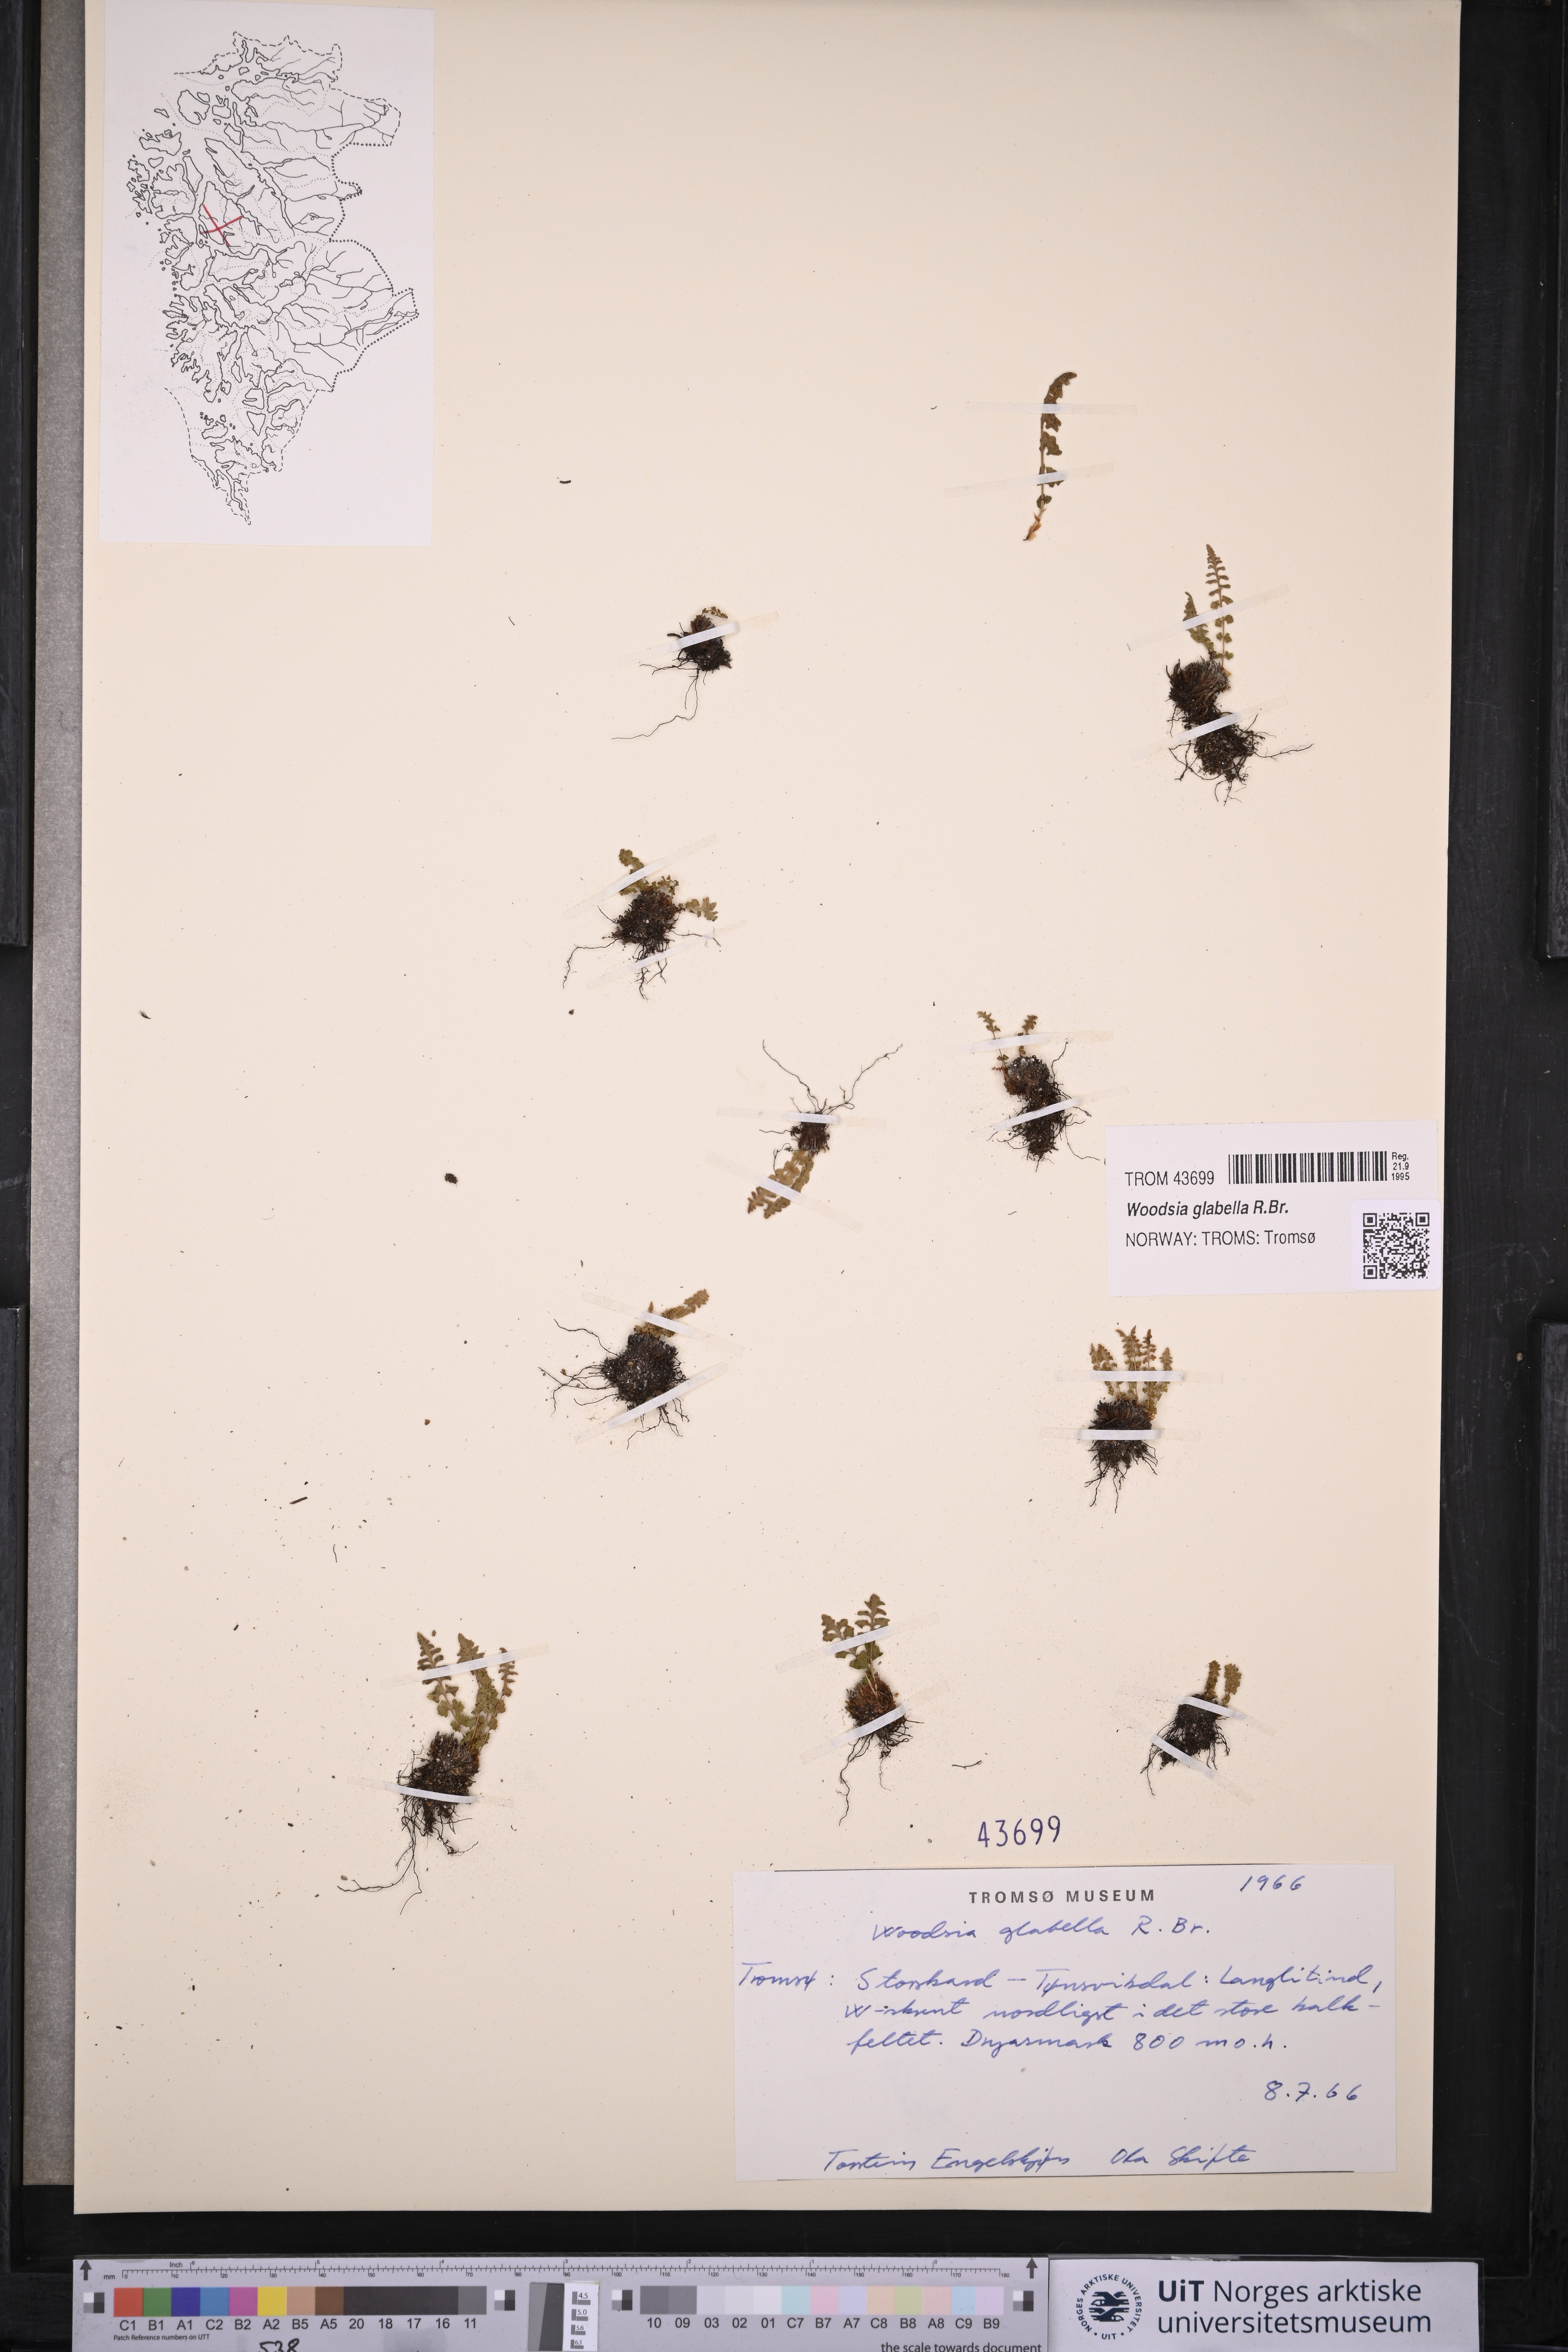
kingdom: Plantae
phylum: Tracheophyta
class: Polypodiopsida
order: Polypodiales
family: Woodsiaceae
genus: Woodsia
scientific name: Woodsia glabella
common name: Smooth woodsia
